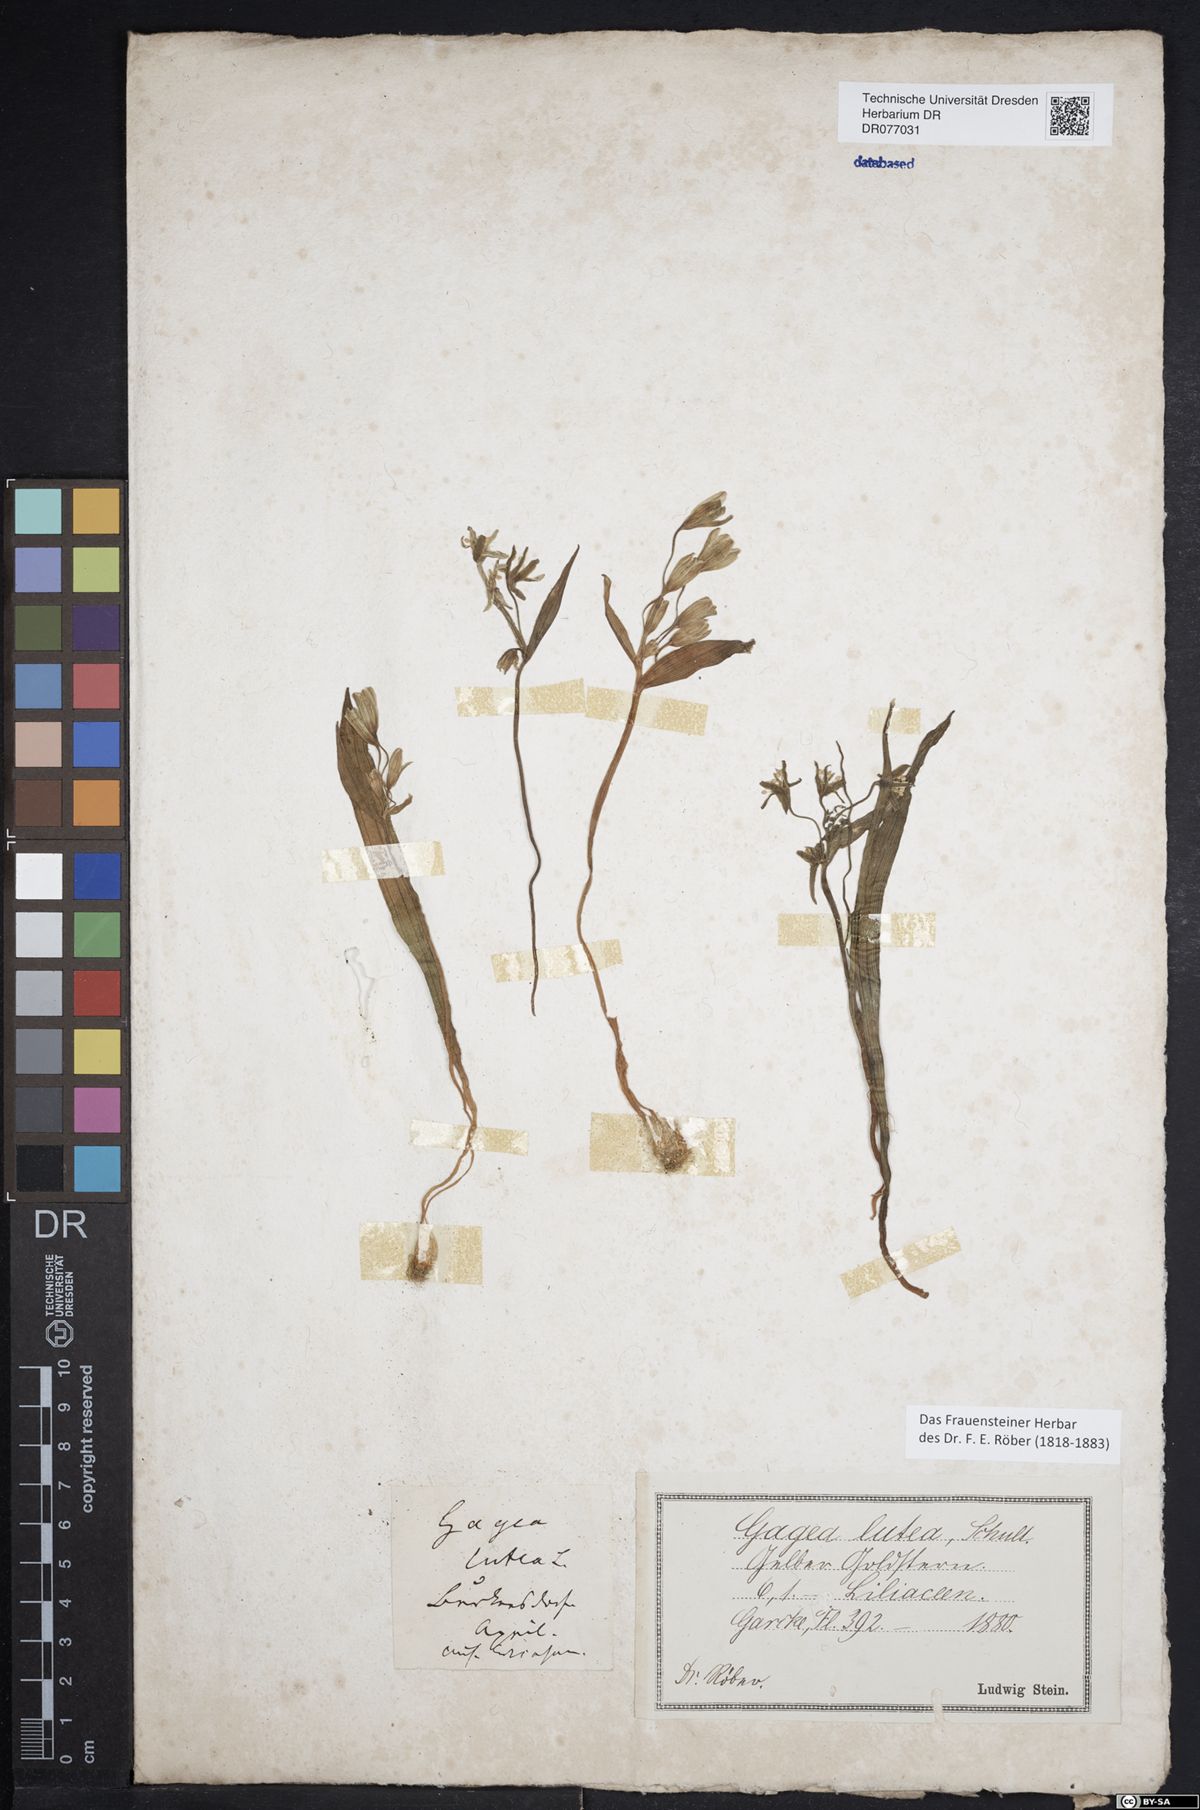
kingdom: Plantae
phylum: Tracheophyta
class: Liliopsida
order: Liliales
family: Liliaceae
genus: Gagea
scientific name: Gagea lutea
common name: Yellow star-of-bethlehem
